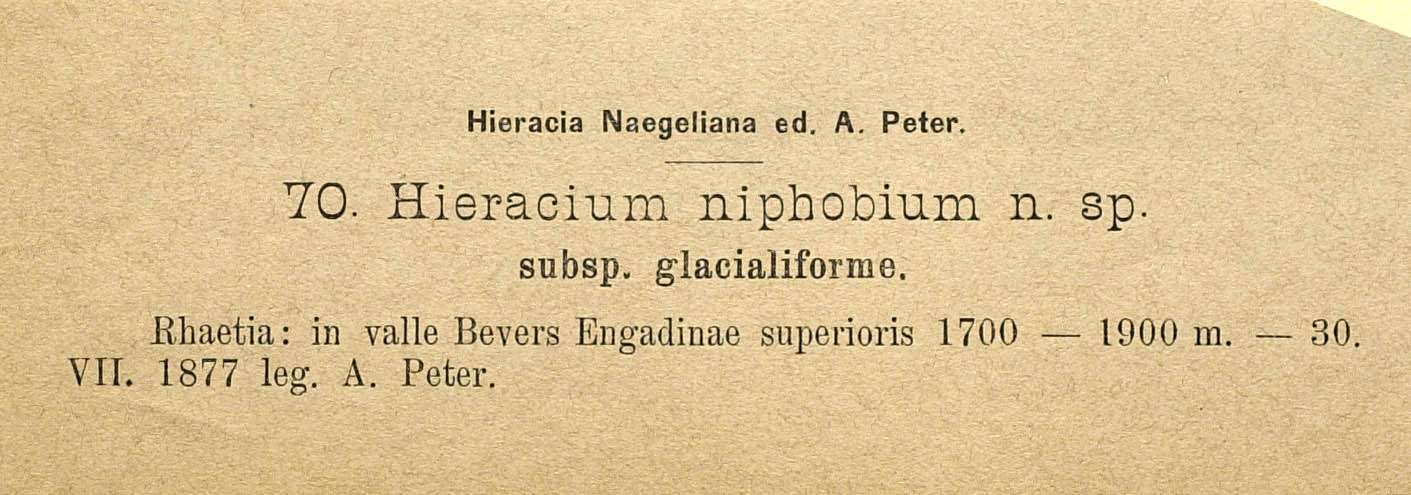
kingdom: Plantae
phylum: Tracheophyta
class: Magnoliopsida
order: Asterales
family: Asteraceae
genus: Pilosella
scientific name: Pilosella corymbuloides
